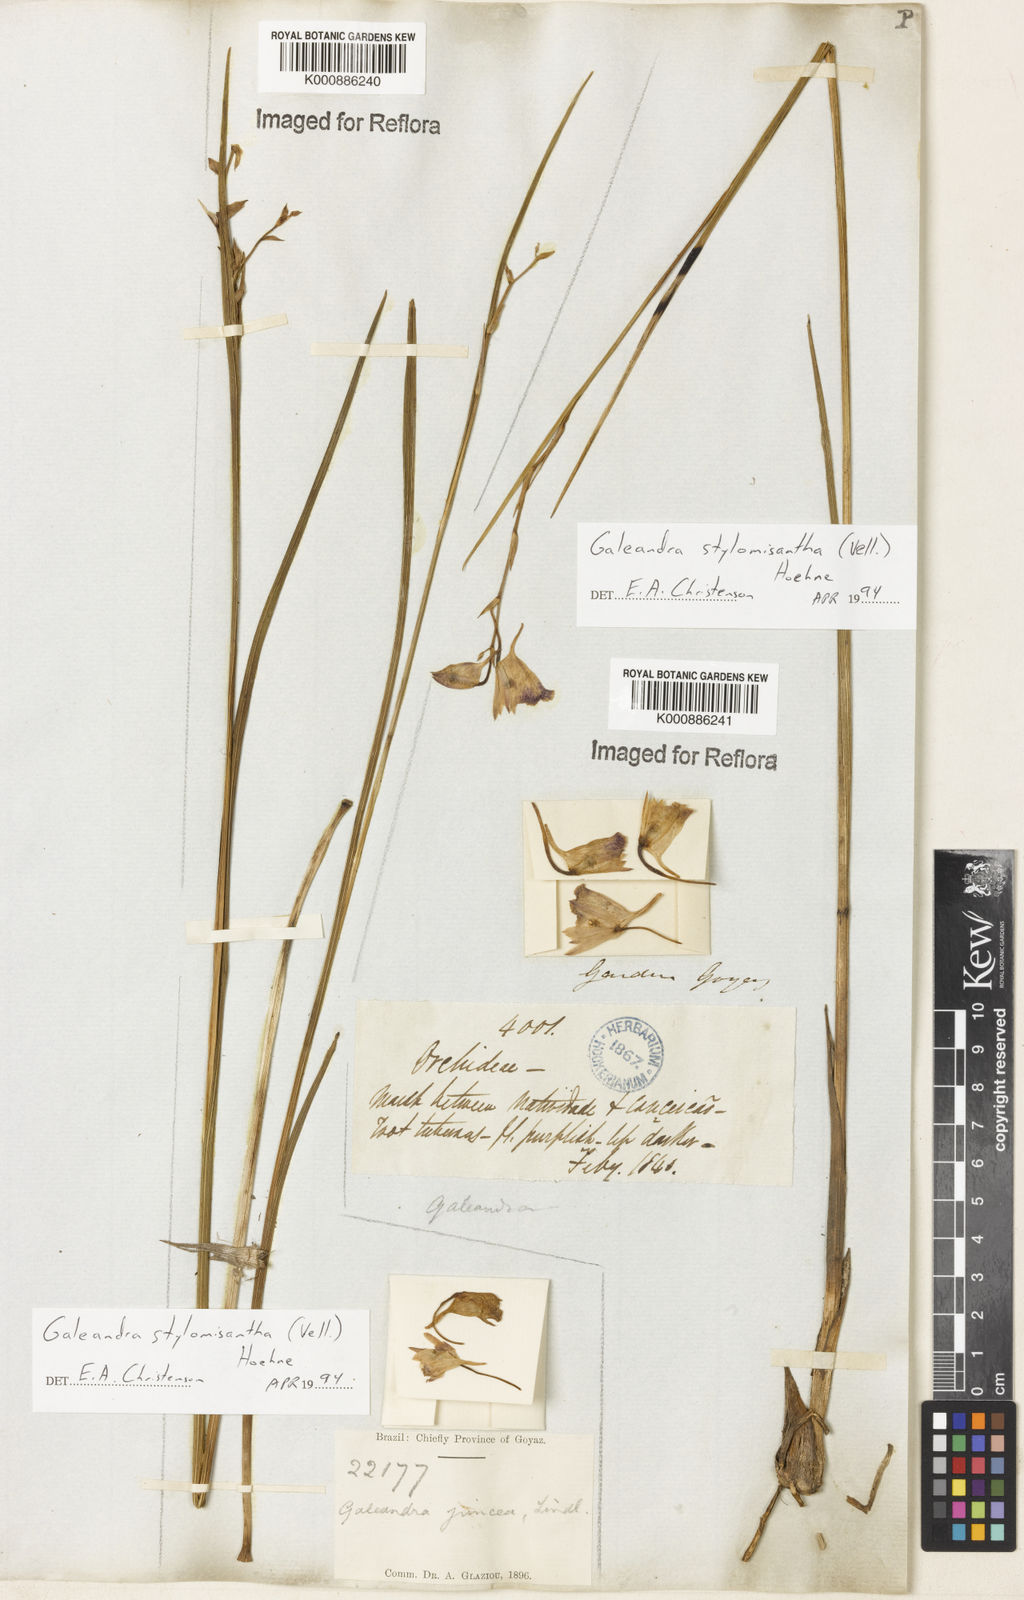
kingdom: Plantae
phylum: Tracheophyta
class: Liliopsida
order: Asparagales
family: Orchidaceae
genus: Galeandra
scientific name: Galeandra styllomisantha
